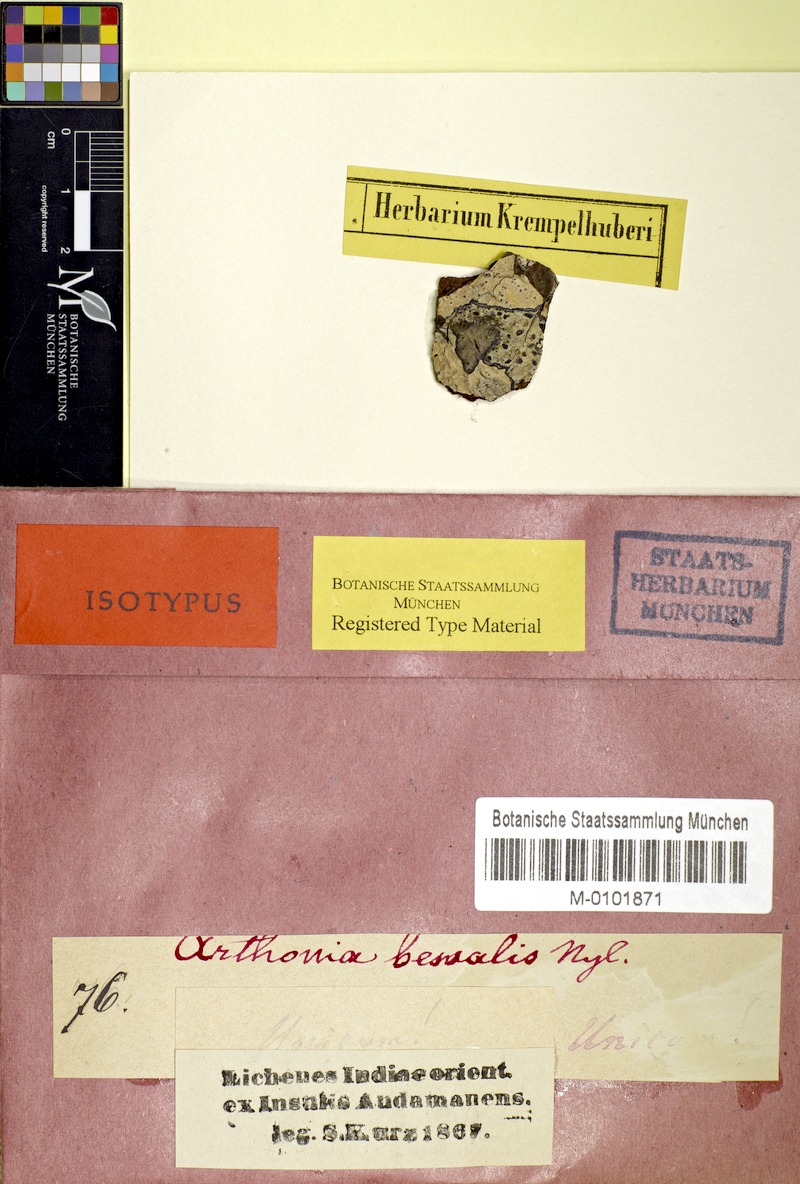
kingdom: Fungi
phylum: Ascomycota
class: Arthoniomycetes
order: Arthoniales
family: Arthoniaceae
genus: Arthothelium
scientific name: Arthothelium
